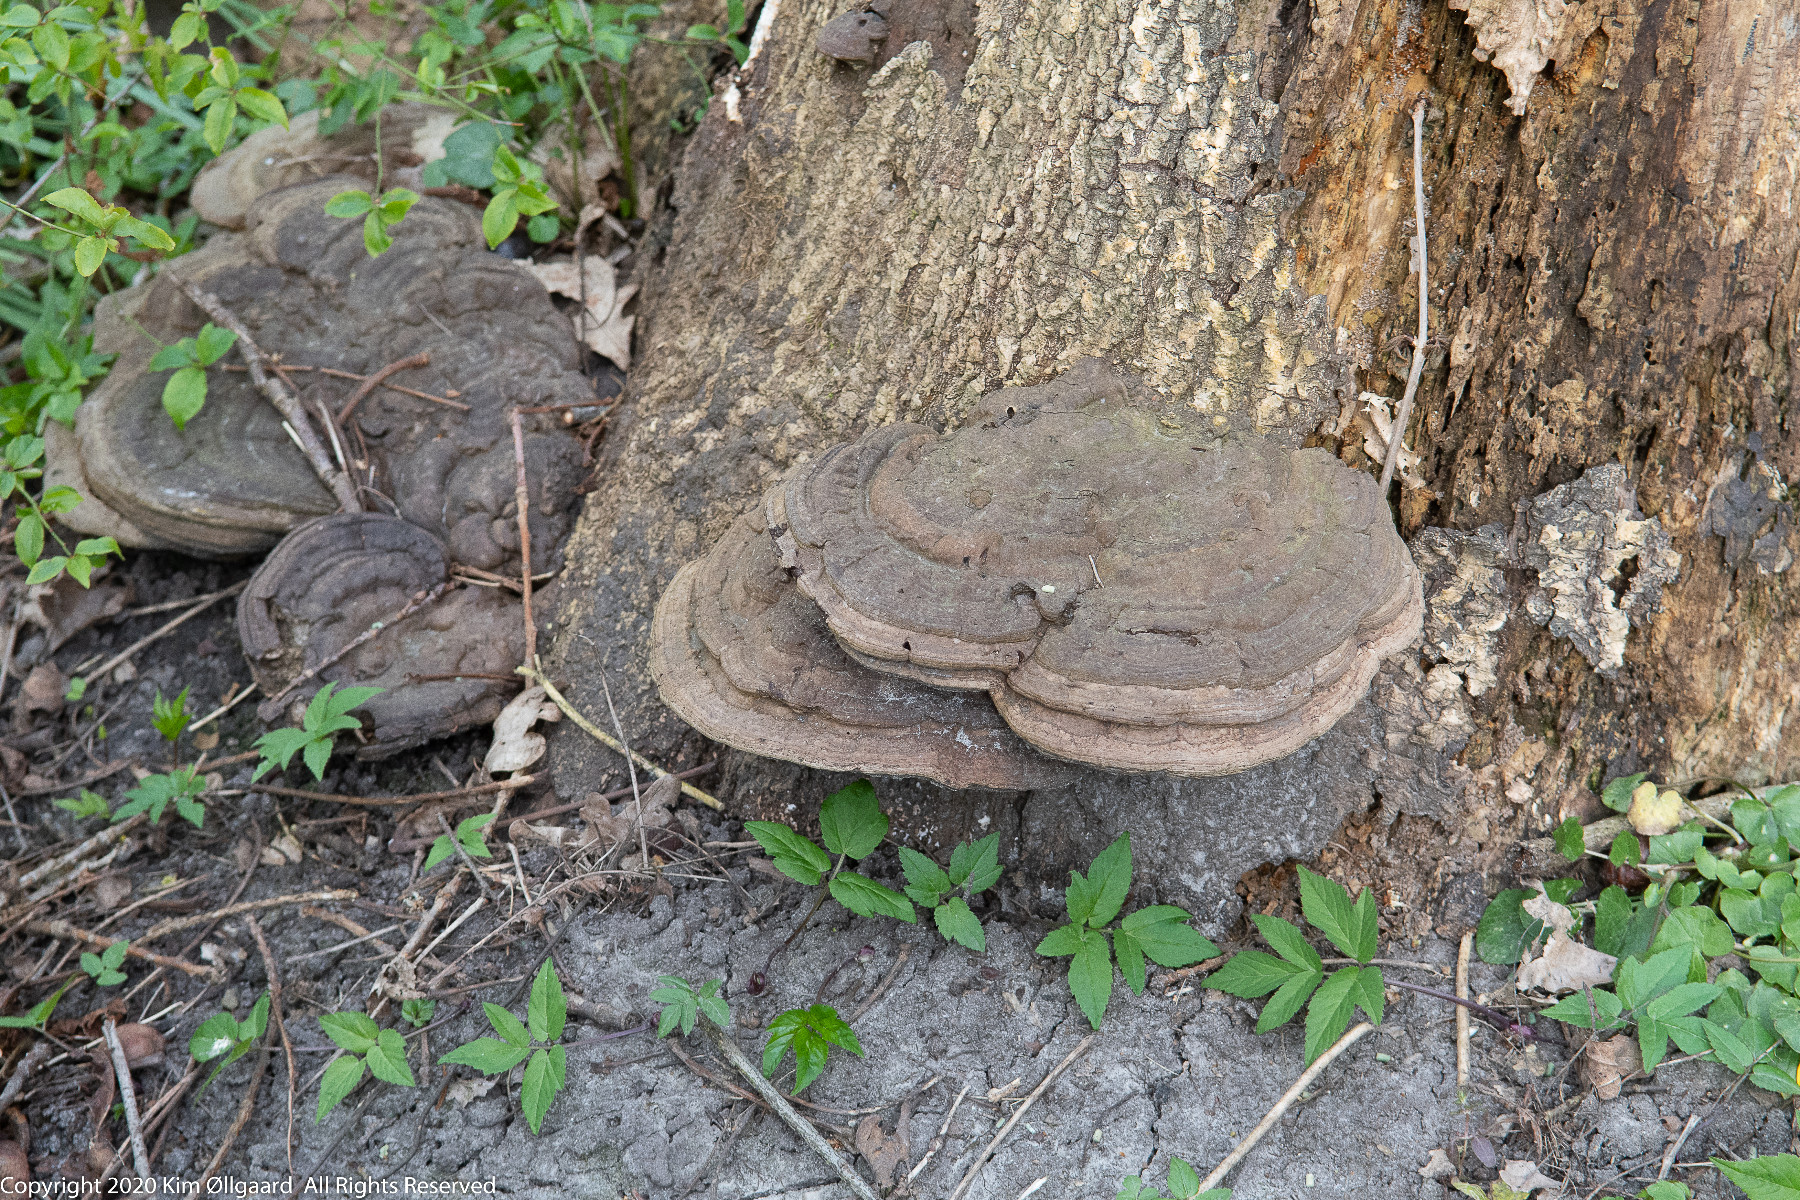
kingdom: Fungi
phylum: Basidiomycota
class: Agaricomycetes
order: Polyporales
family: Polyporaceae
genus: Ganoderma
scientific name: Ganoderma applanatum
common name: flad lakporesvamp
